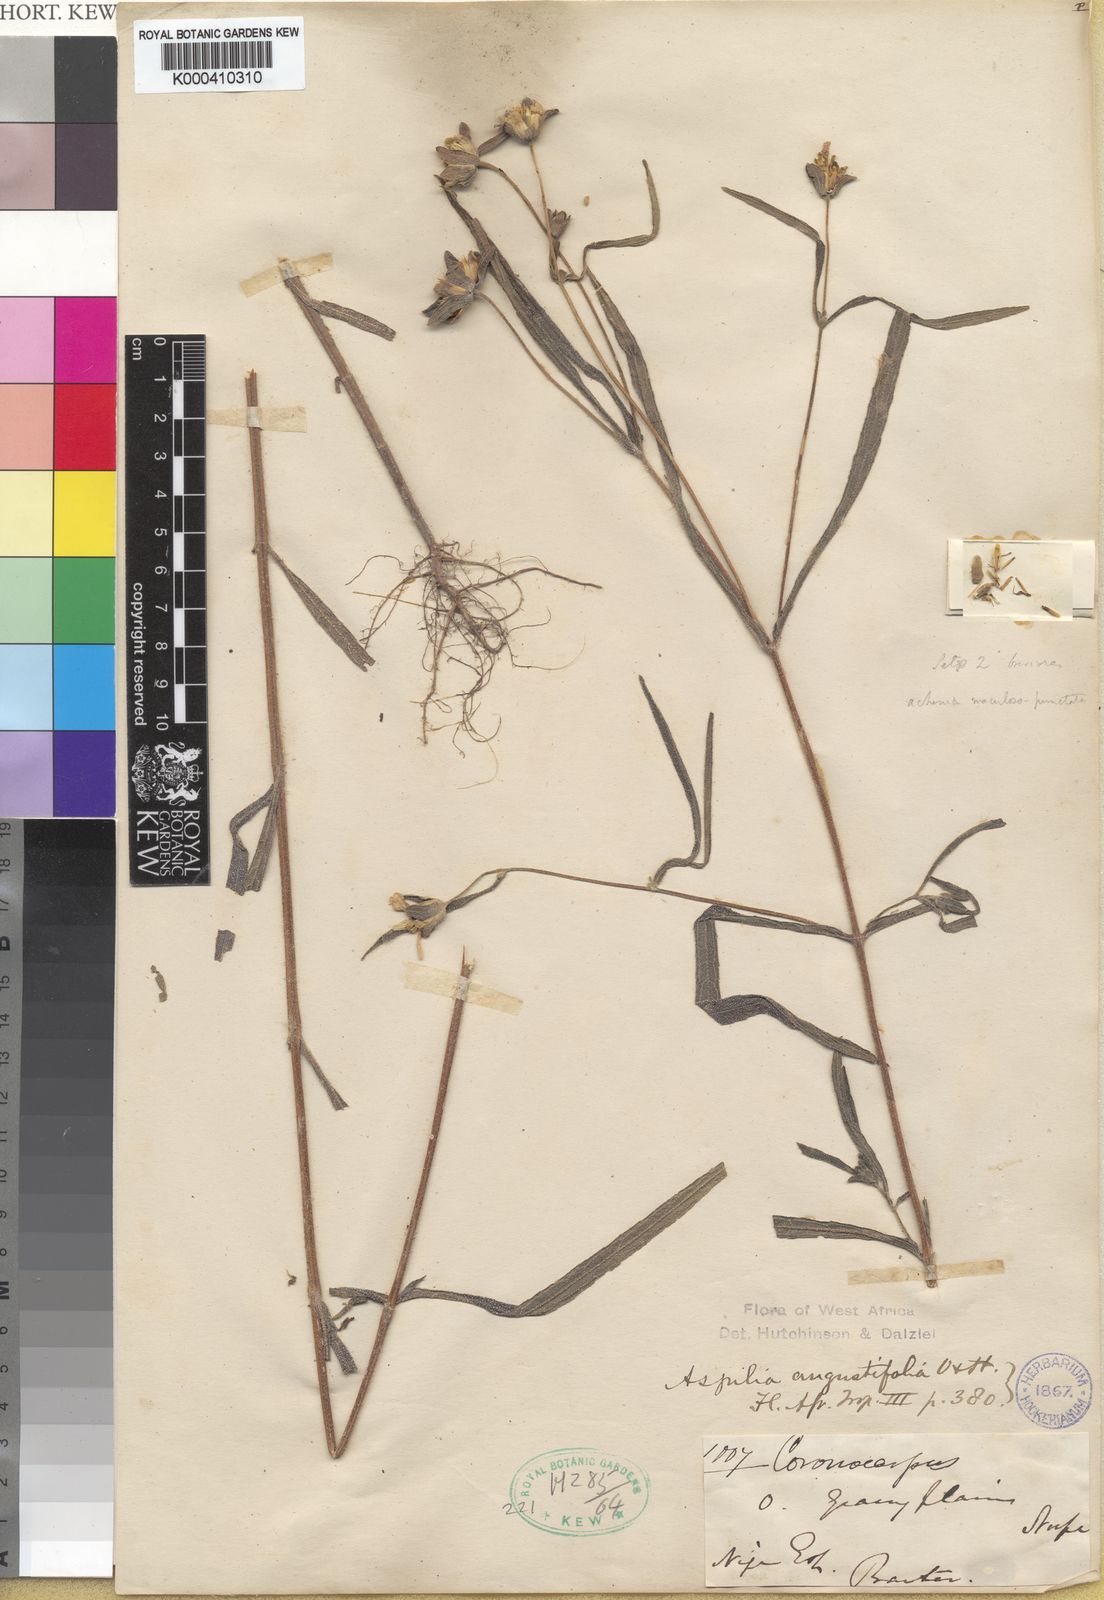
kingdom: Plantae
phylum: Tracheophyta
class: Magnoliopsida
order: Asterales
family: Asteraceae
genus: Aspilia
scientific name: Aspilia angustifolia
